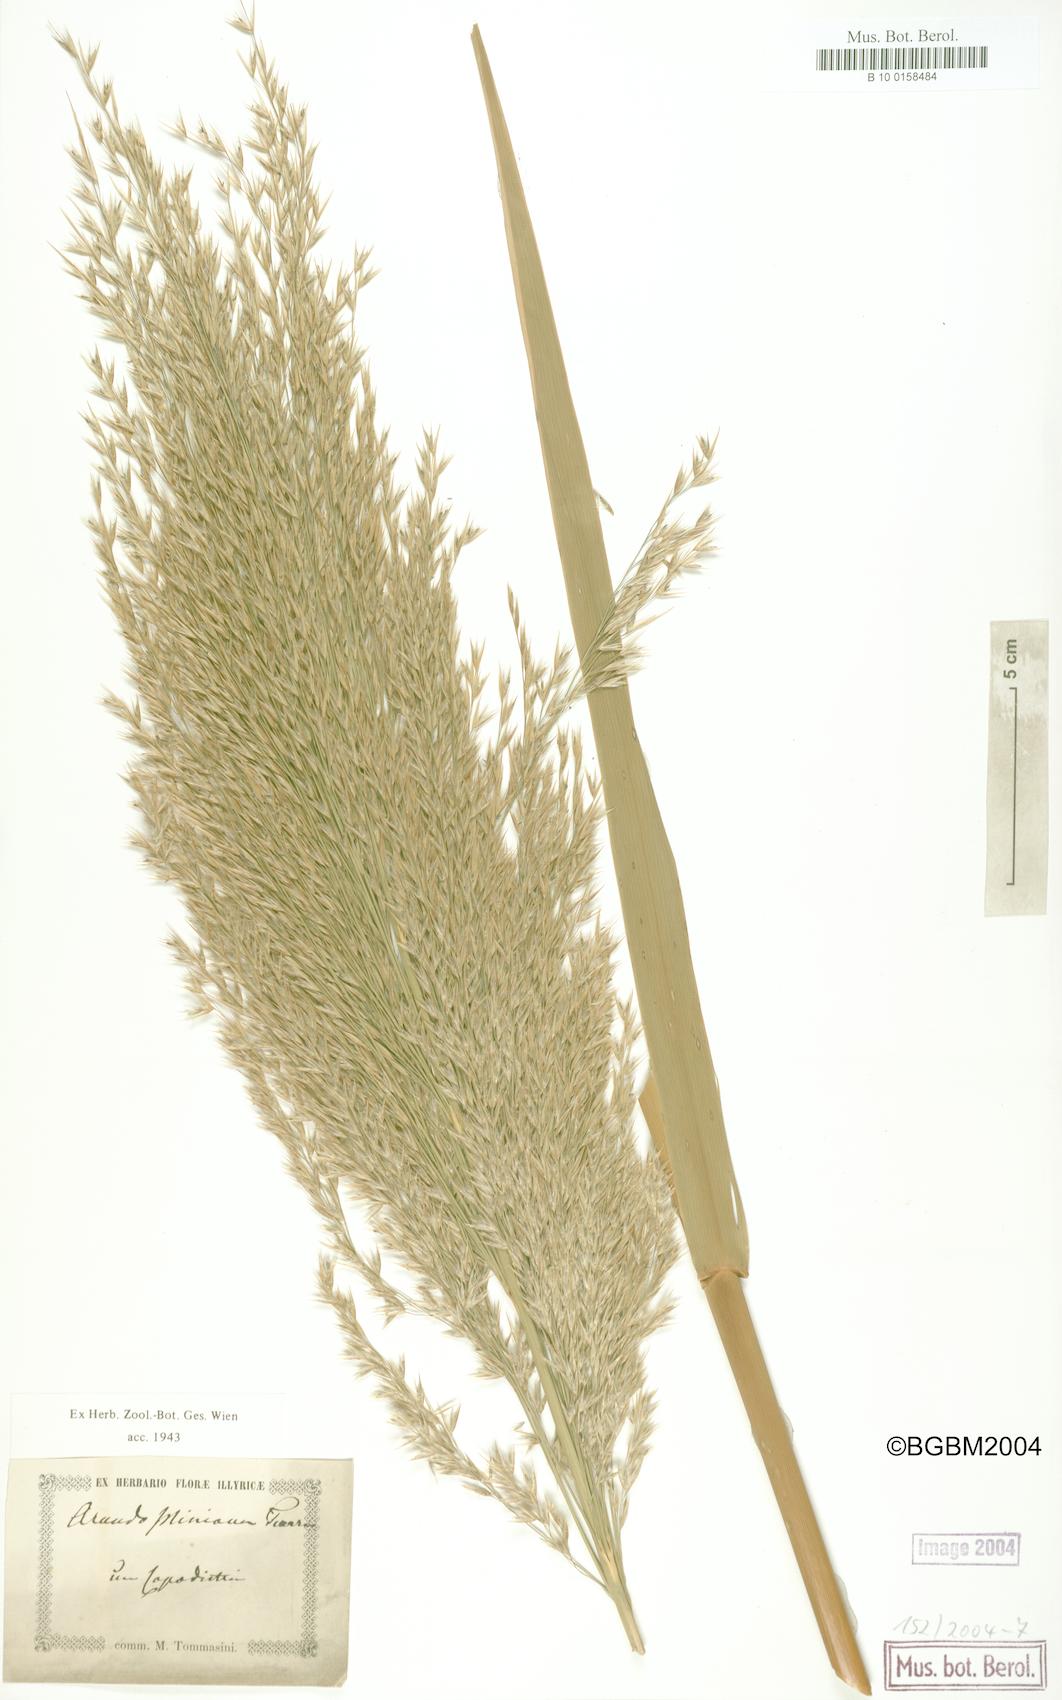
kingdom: Plantae
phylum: Tracheophyta
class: Liliopsida
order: Poales
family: Poaceae
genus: Arundo
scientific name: Arundo plinii
